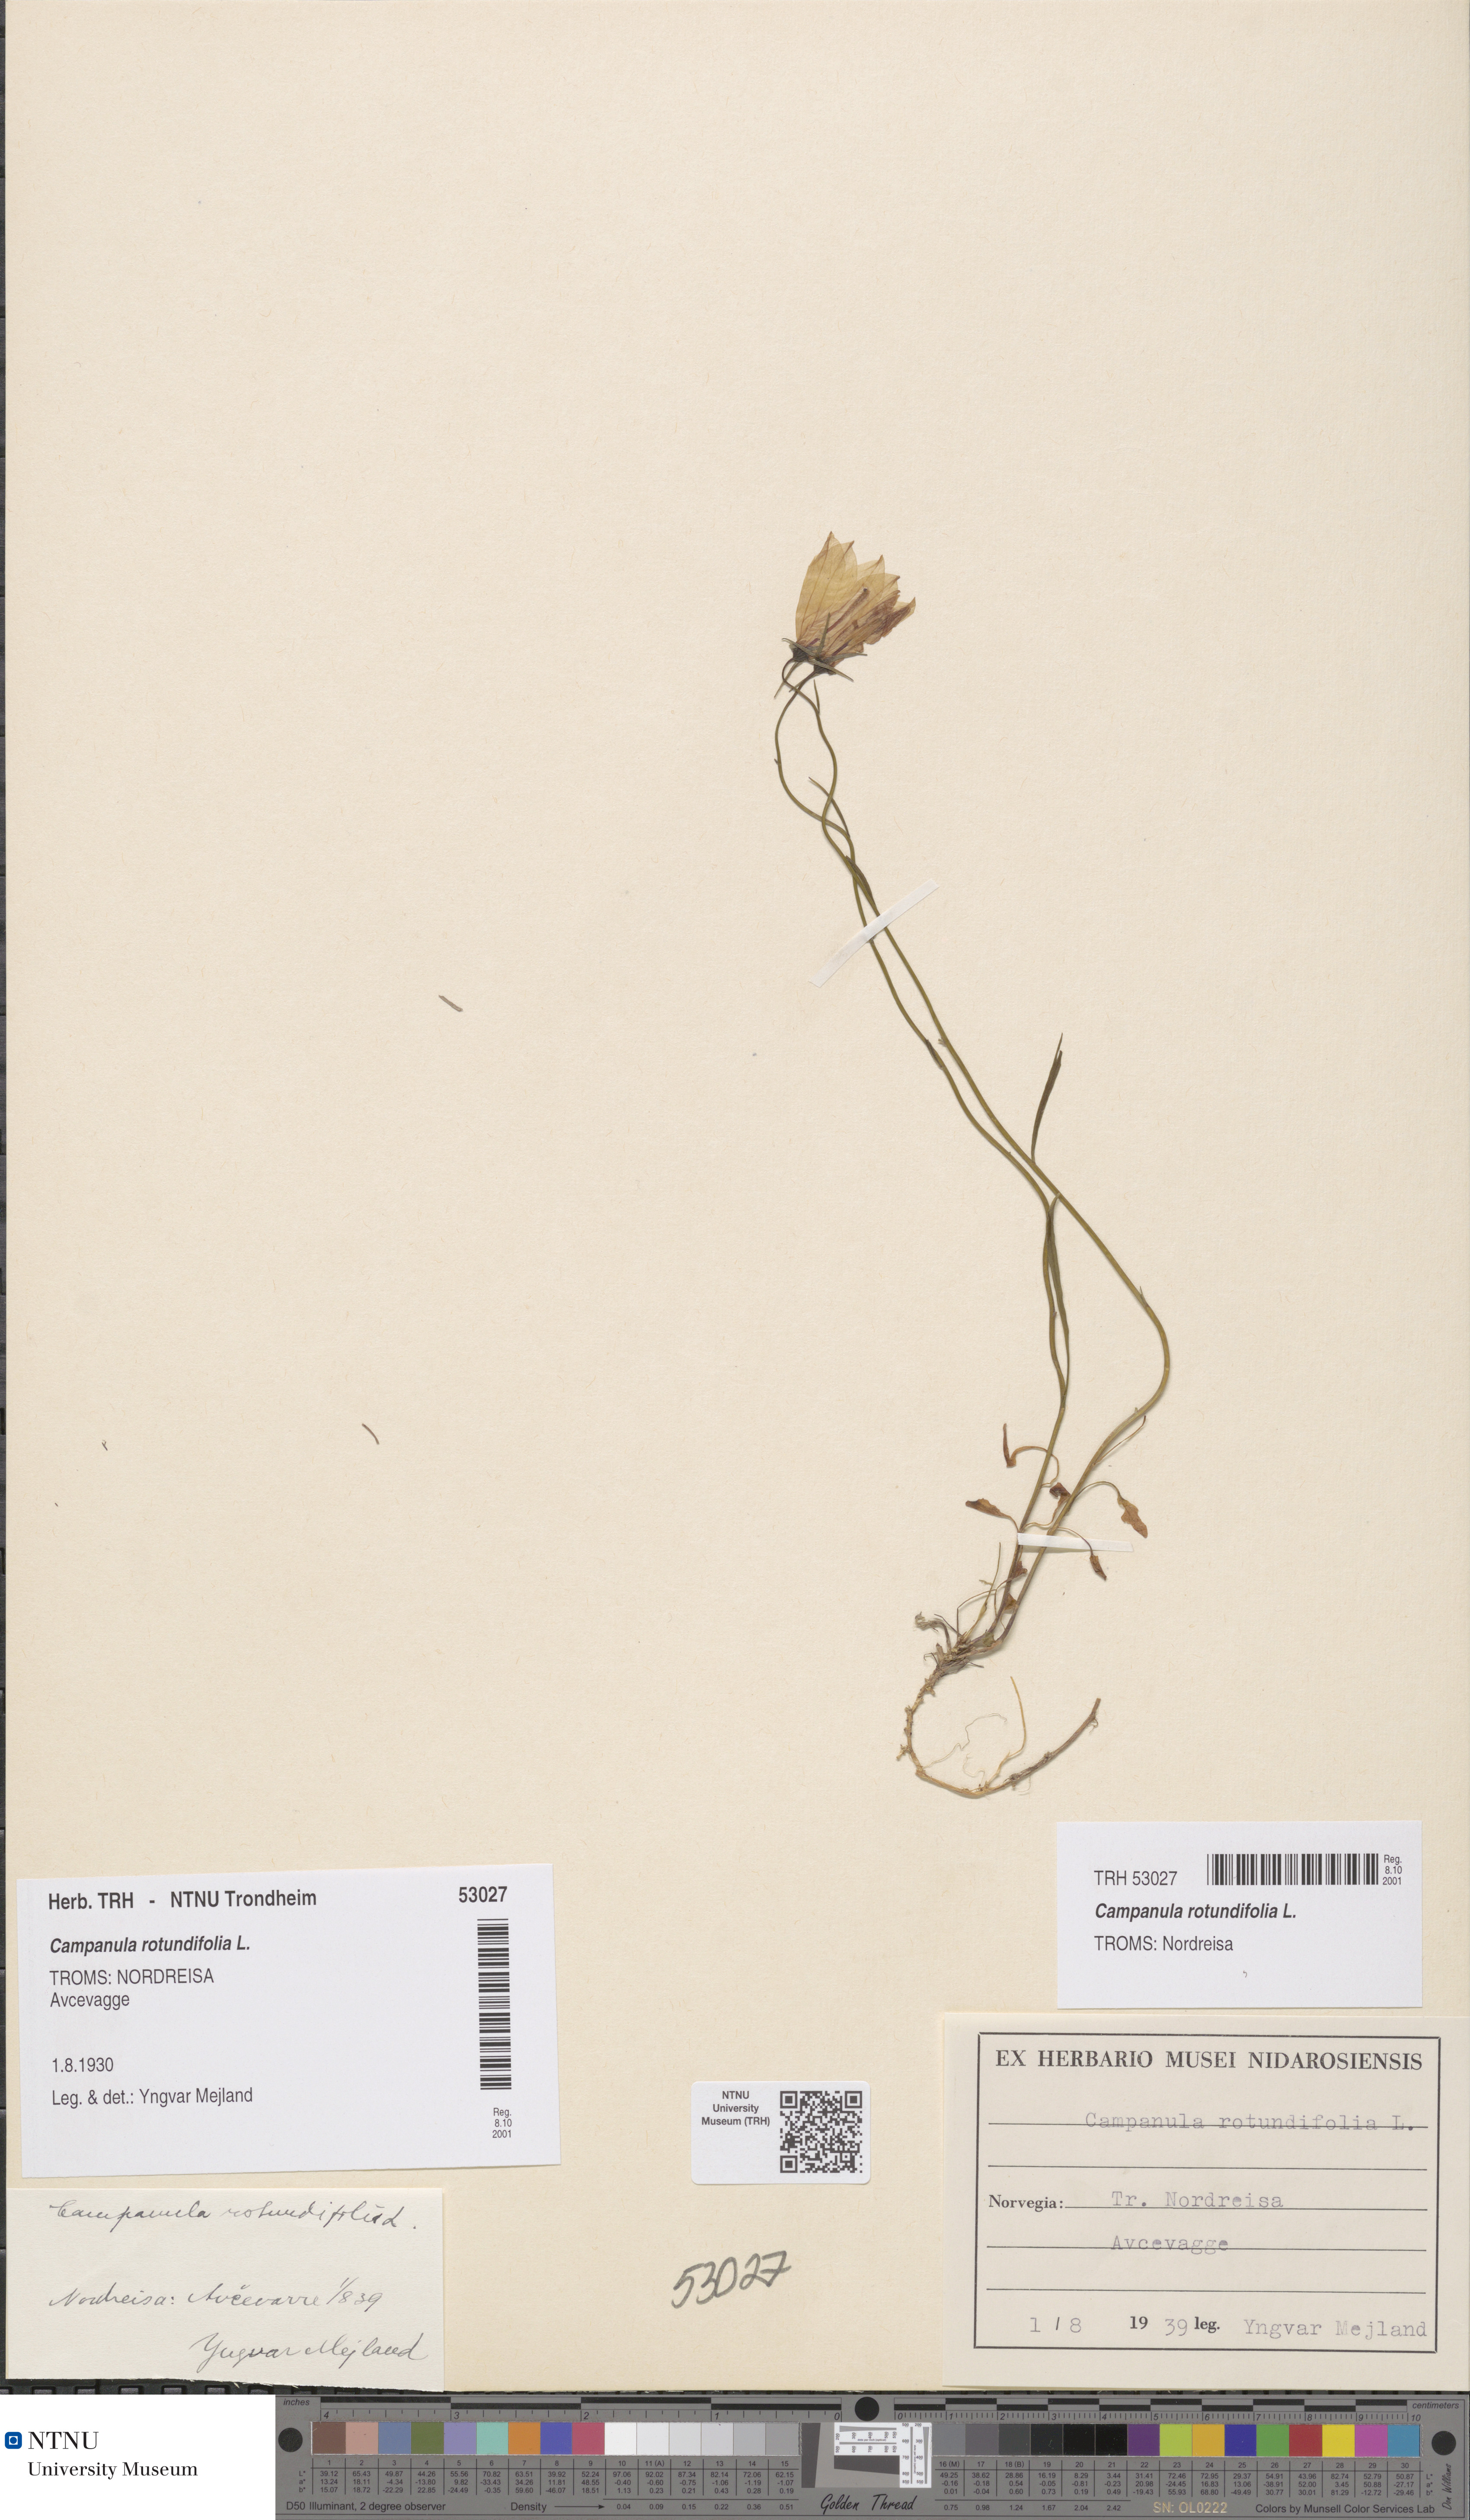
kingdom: Plantae
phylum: Tracheophyta
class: Magnoliopsida
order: Asterales
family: Campanulaceae
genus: Campanula
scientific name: Campanula rotundifolia
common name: Harebell
